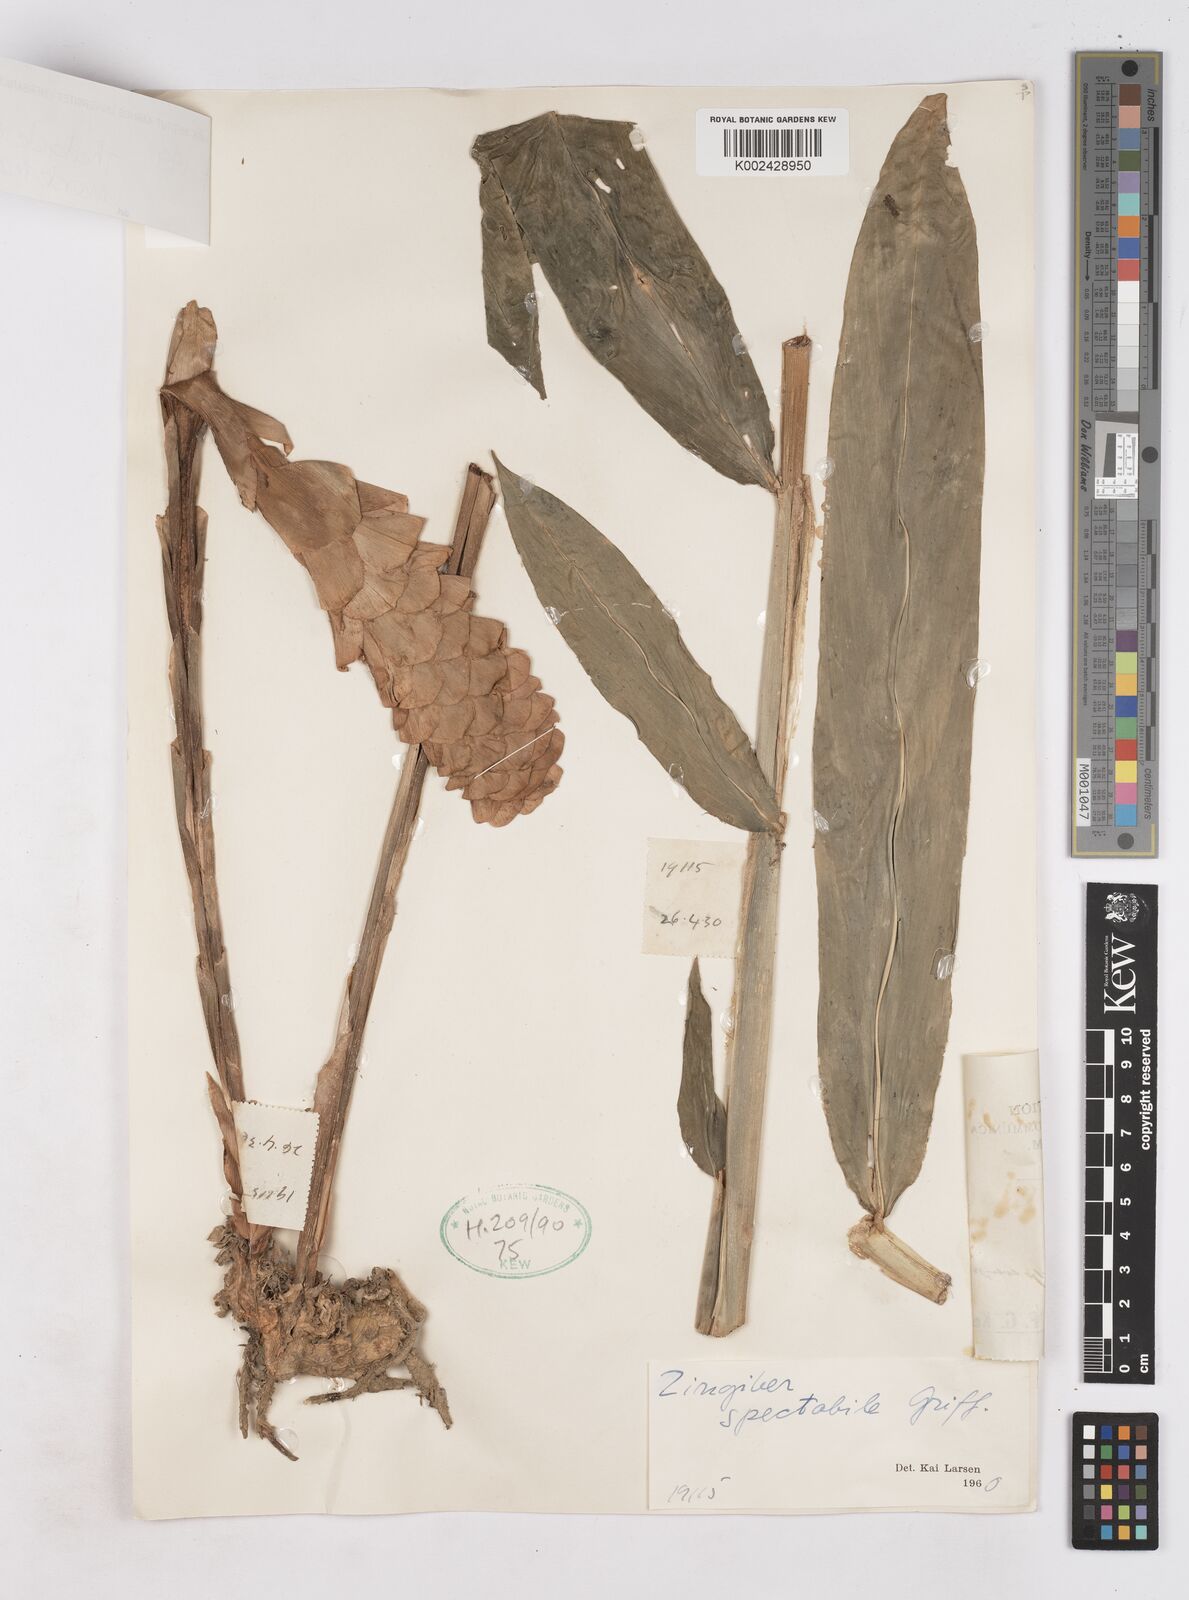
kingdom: Plantae
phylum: Tracheophyta
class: Liliopsida
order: Zingiberales
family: Zingiberaceae
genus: Zingiber
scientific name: Zingiber spectabile
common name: Beehive ginger
